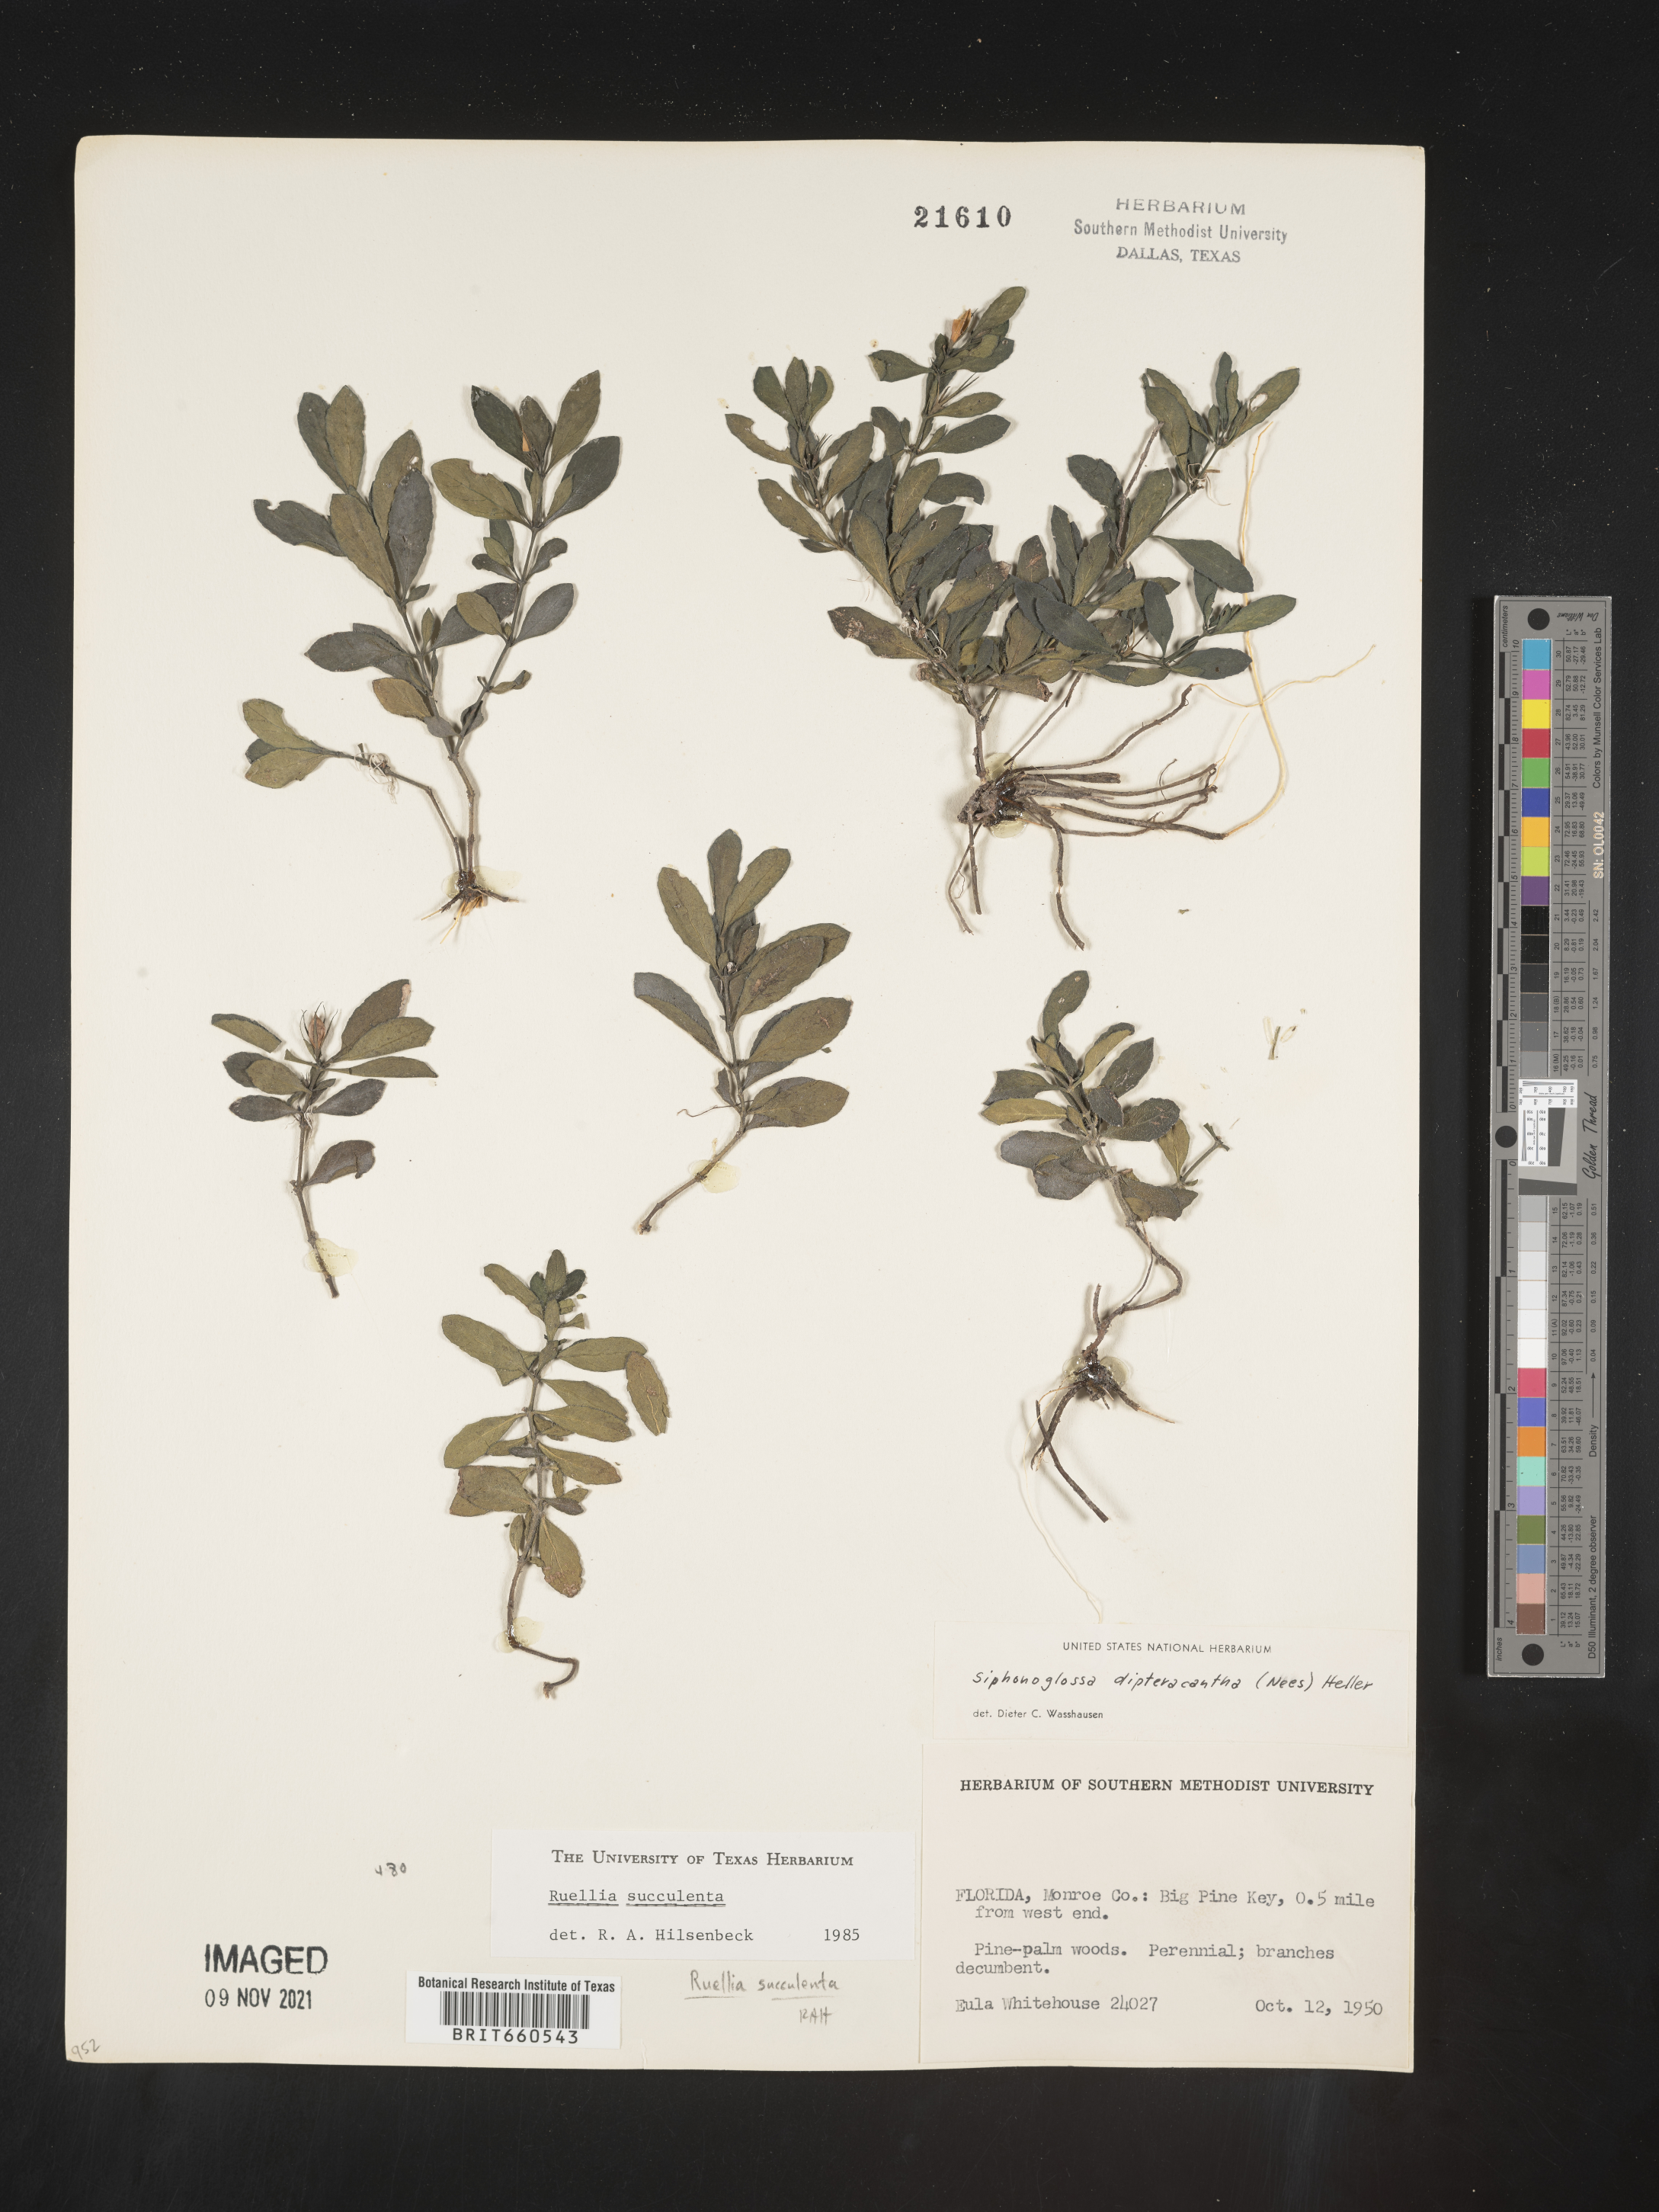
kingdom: Plantae
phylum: Tracheophyta
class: Magnoliopsida
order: Lamiales
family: Acanthaceae
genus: Ruellia
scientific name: Ruellia caroliniensis
